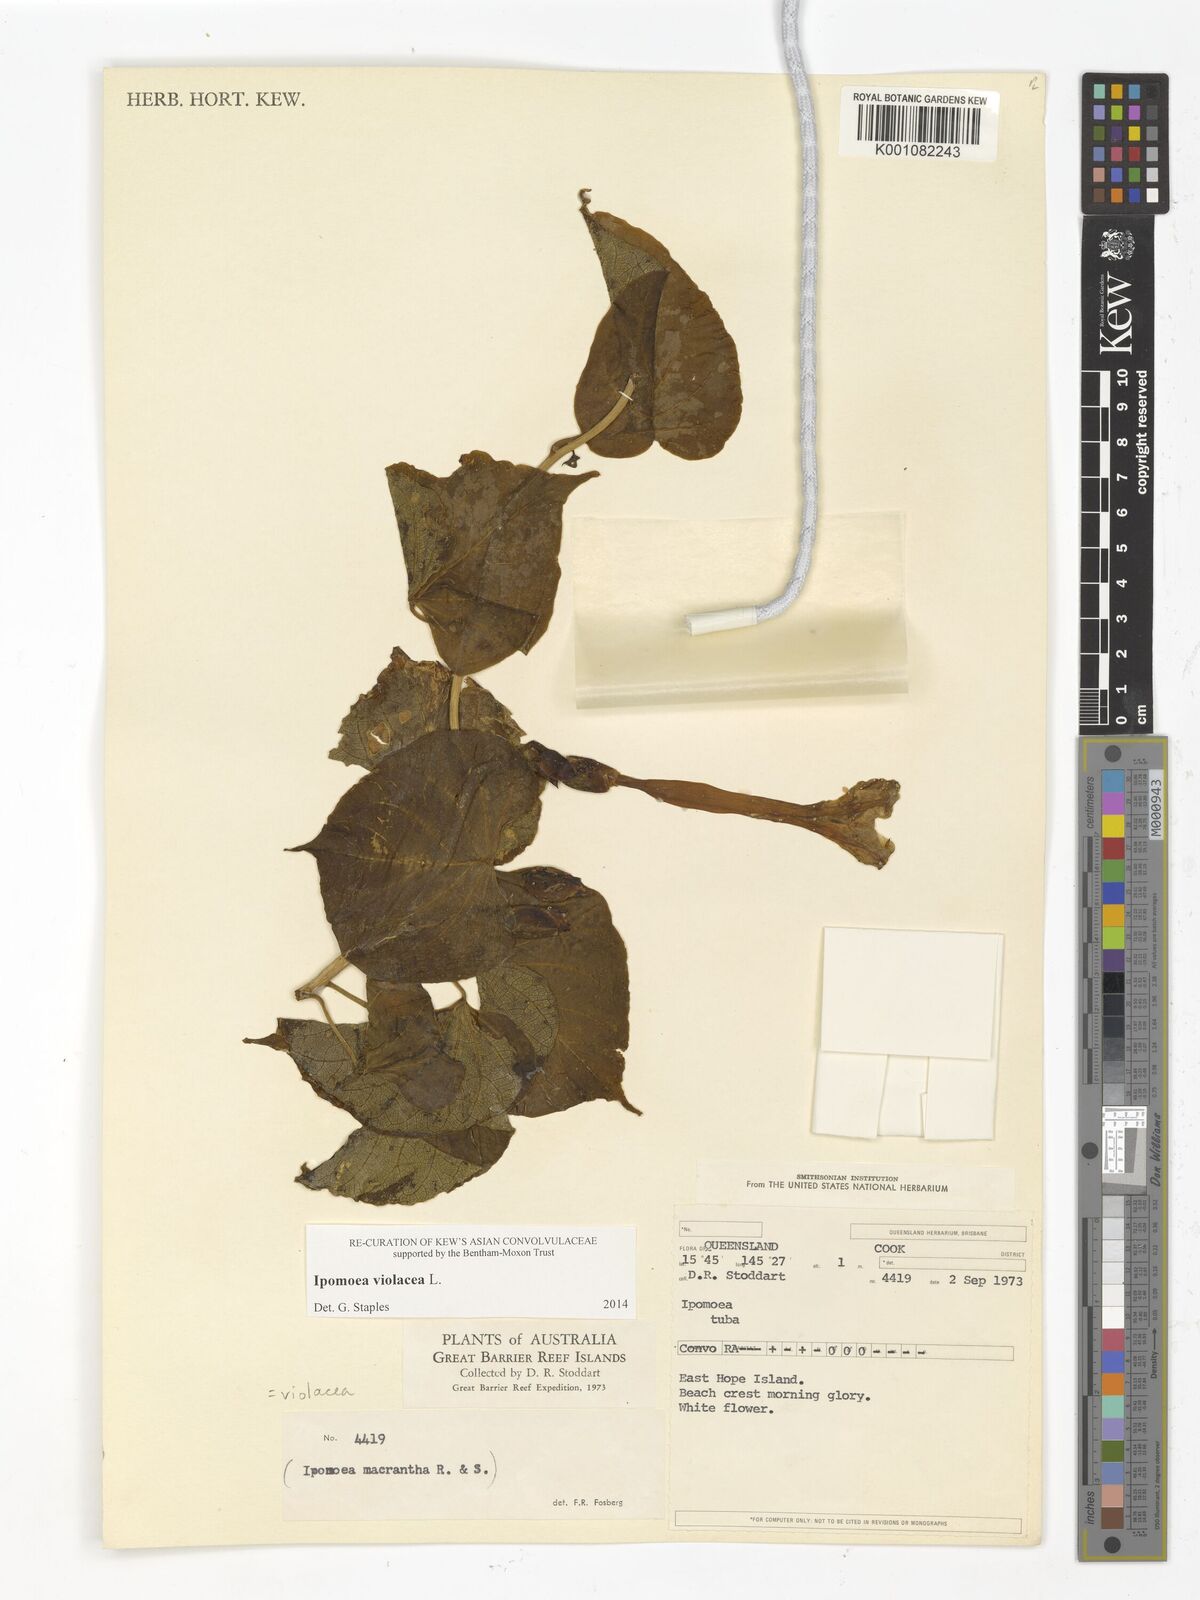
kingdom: Plantae
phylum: Tracheophyta
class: Magnoliopsida
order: Solanales
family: Convolvulaceae
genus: Ipomoea
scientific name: Ipomoea violacea
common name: Beach moonflower
